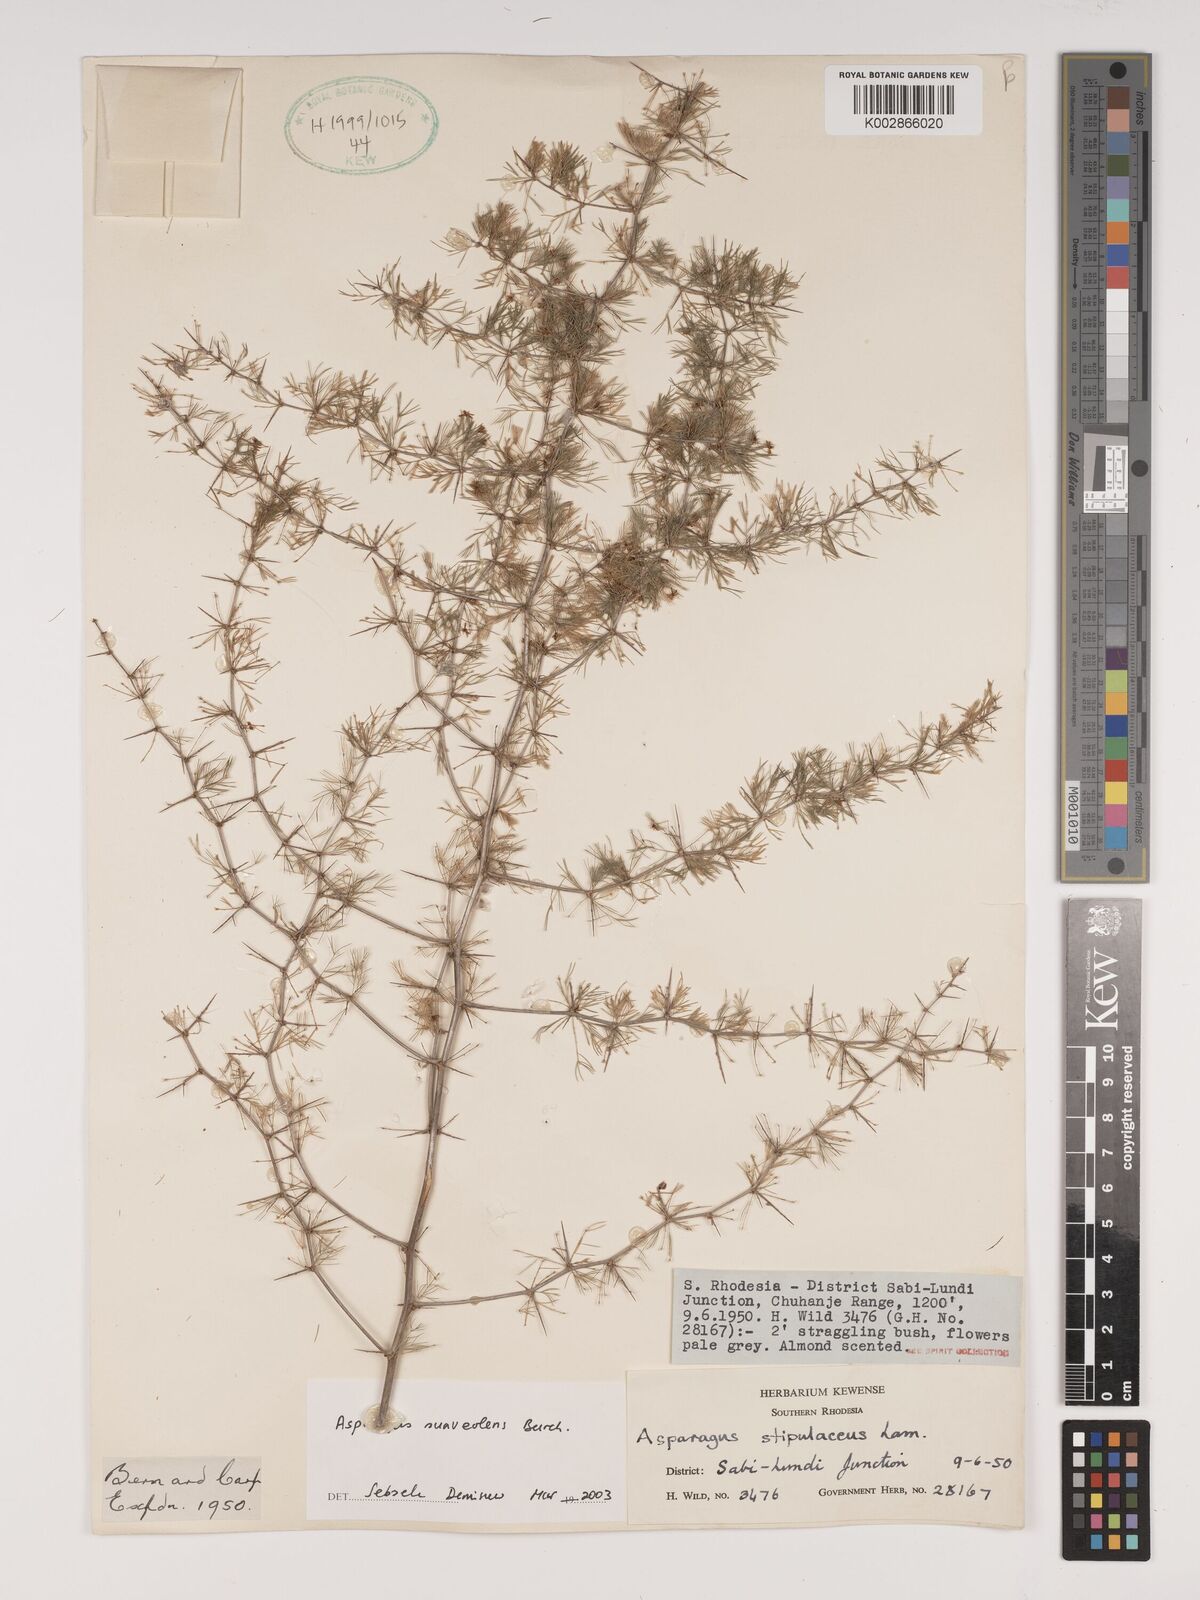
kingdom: Plantae
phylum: Tracheophyta
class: Liliopsida
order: Asparagales
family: Asparagaceae
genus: Asparagus
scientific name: Asparagus suaveolens
